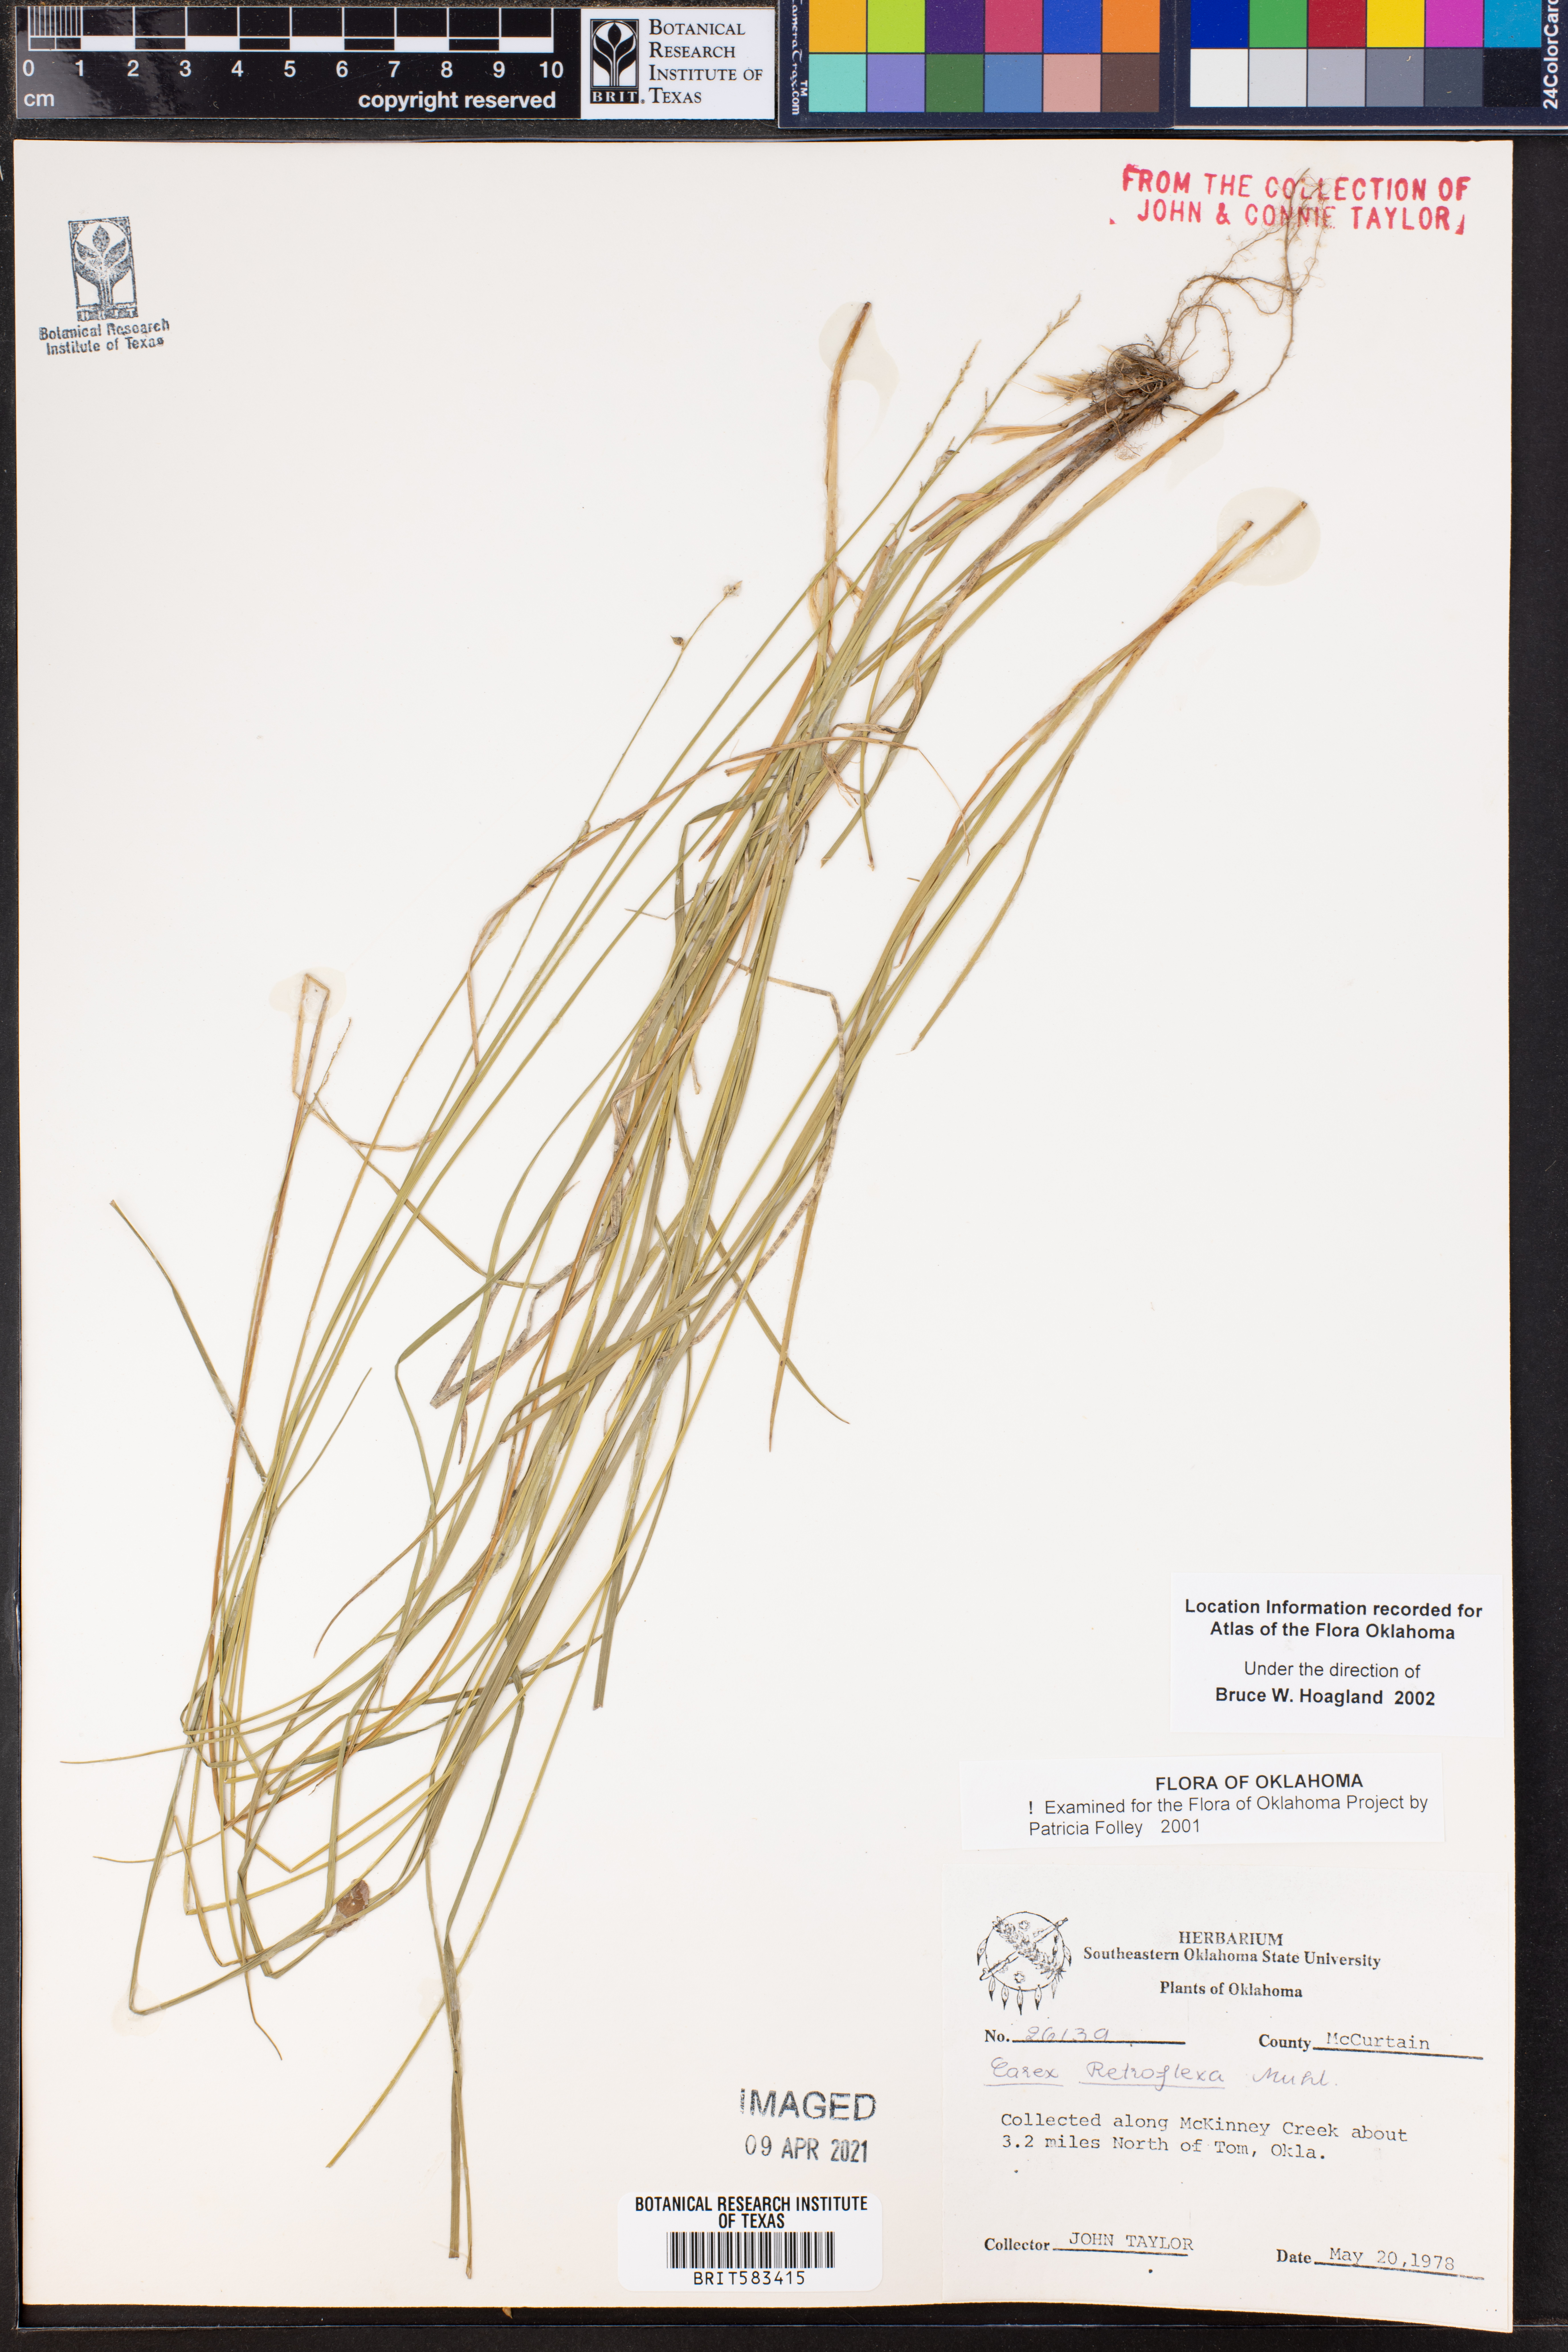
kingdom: Plantae
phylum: Tracheophyta
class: Liliopsida
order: Poales
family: Cyperaceae
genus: Carex
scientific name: Carex retroflexa
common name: Reflexed sedge
